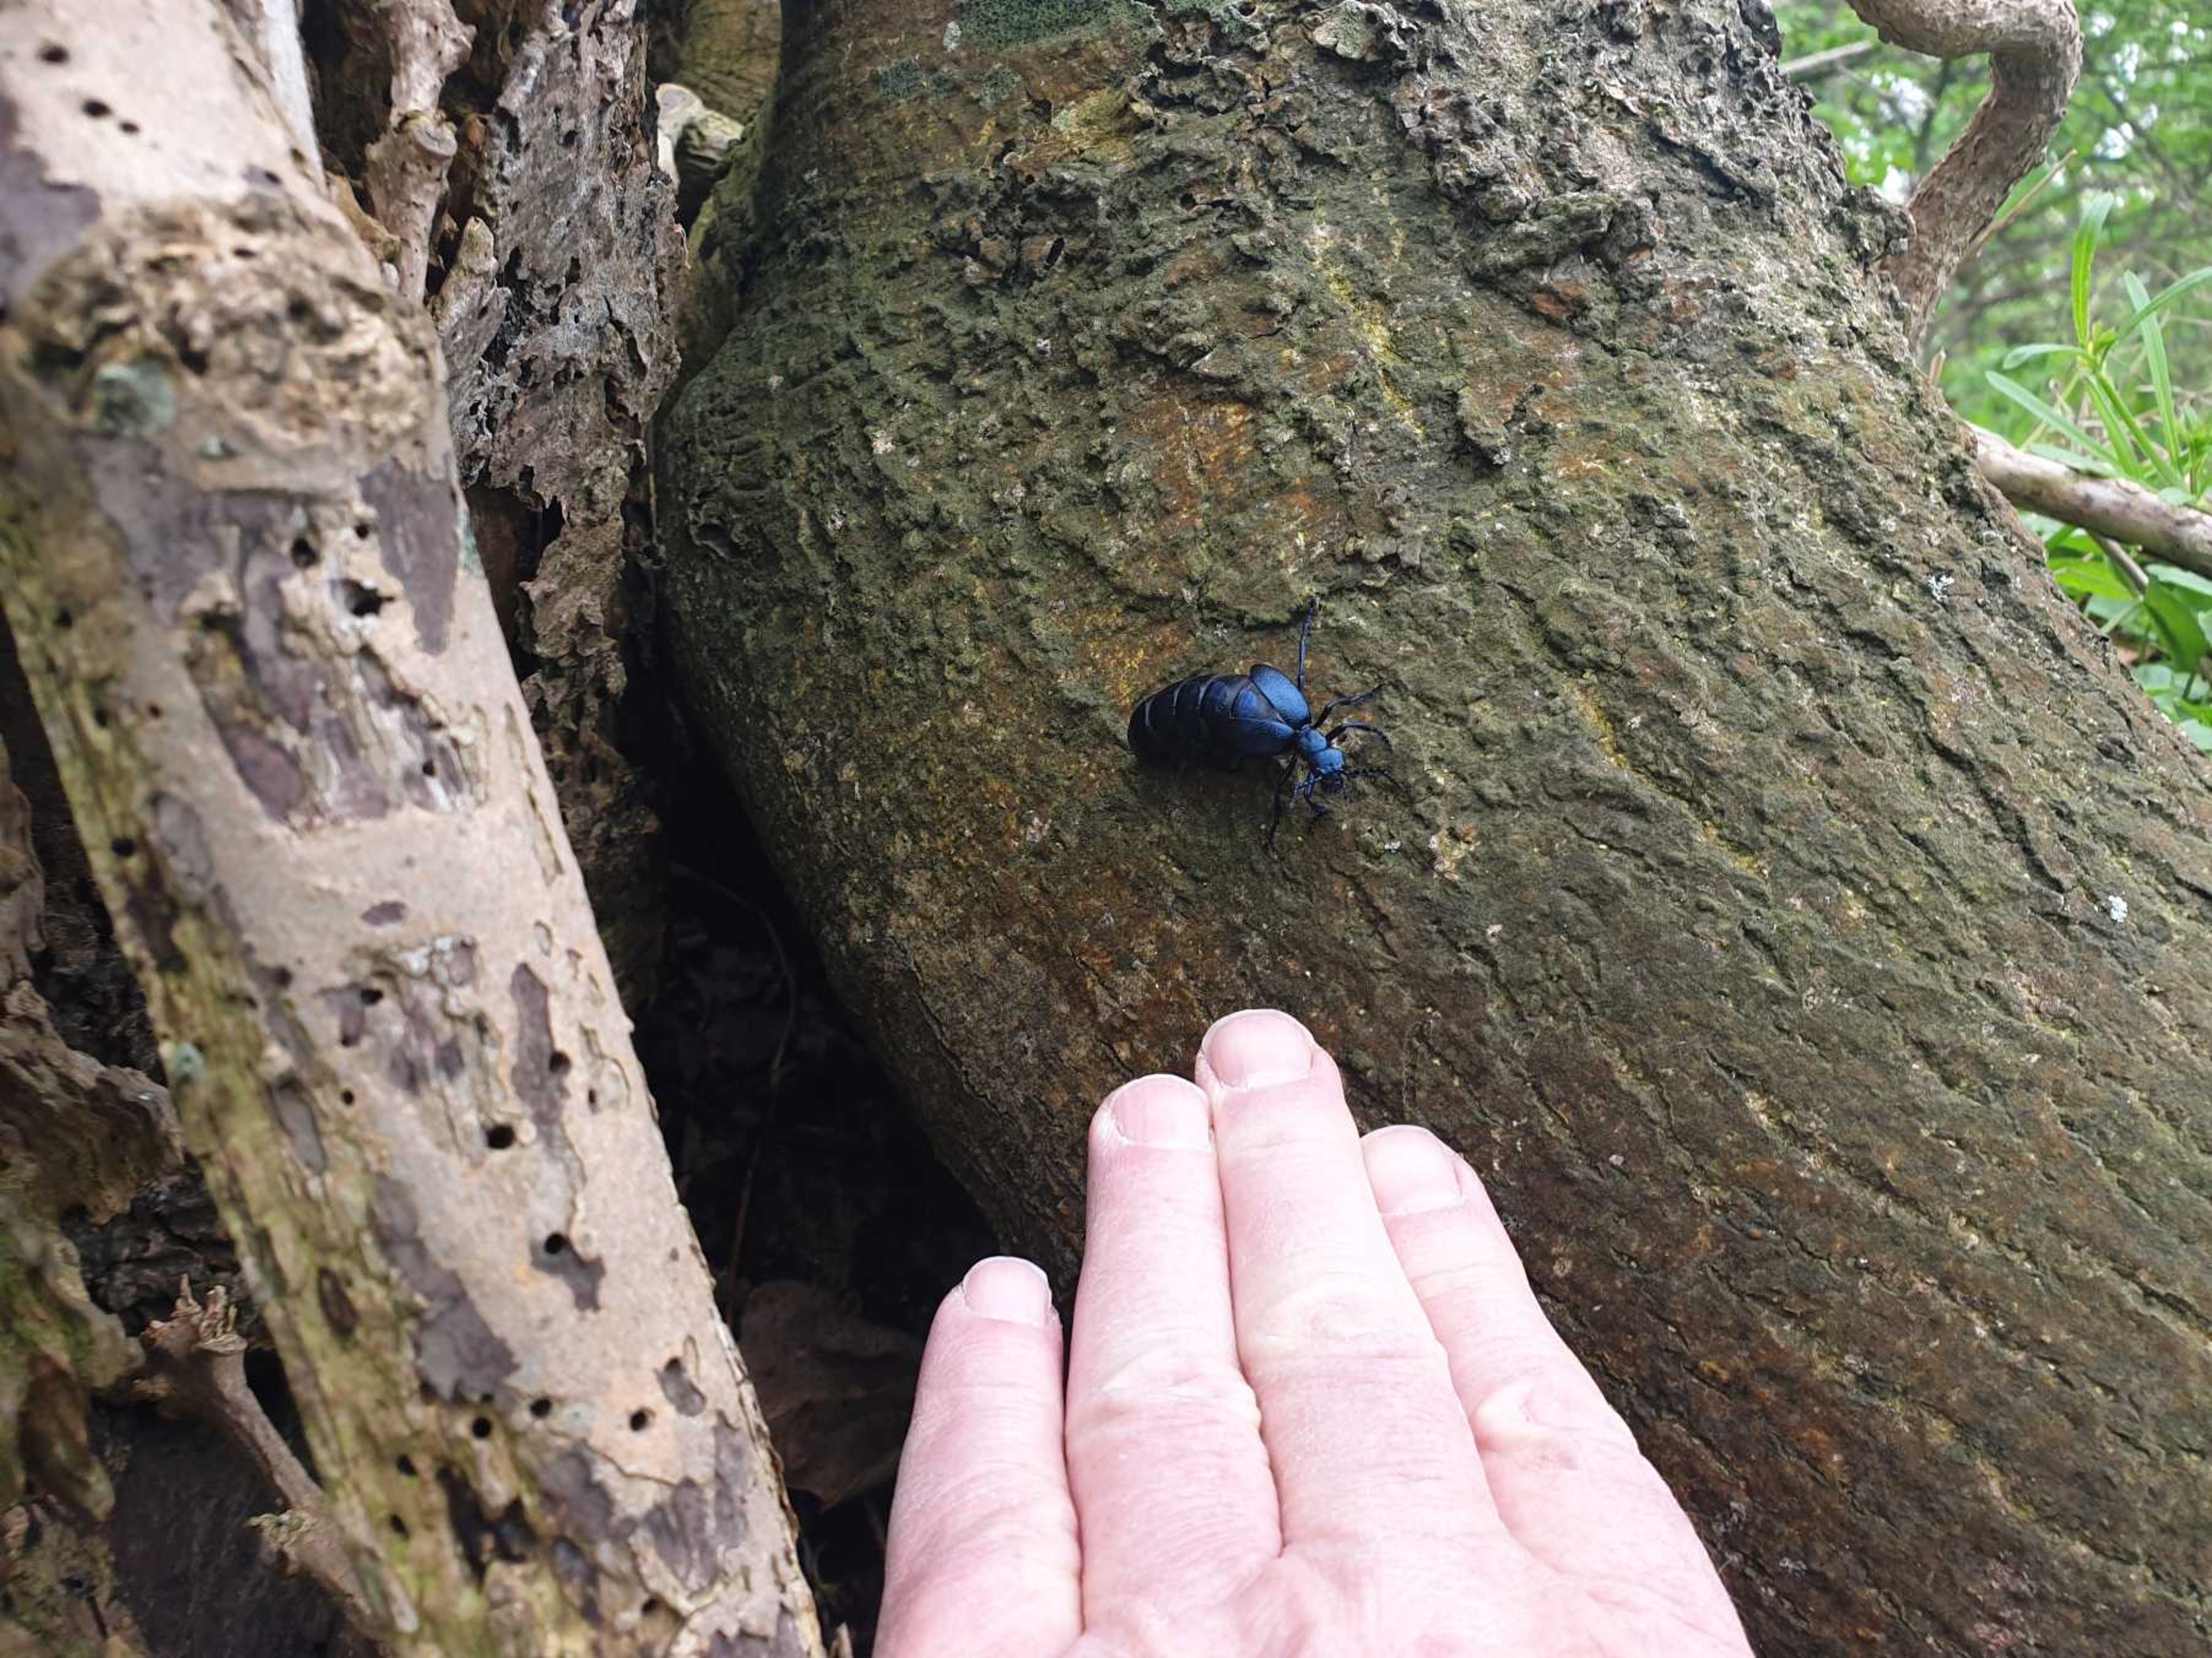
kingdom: Animalia
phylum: Arthropoda
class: Insecta
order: Coleoptera
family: Meloidae
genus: Meloe
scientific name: Meloe violaceus
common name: Blå oliebille
